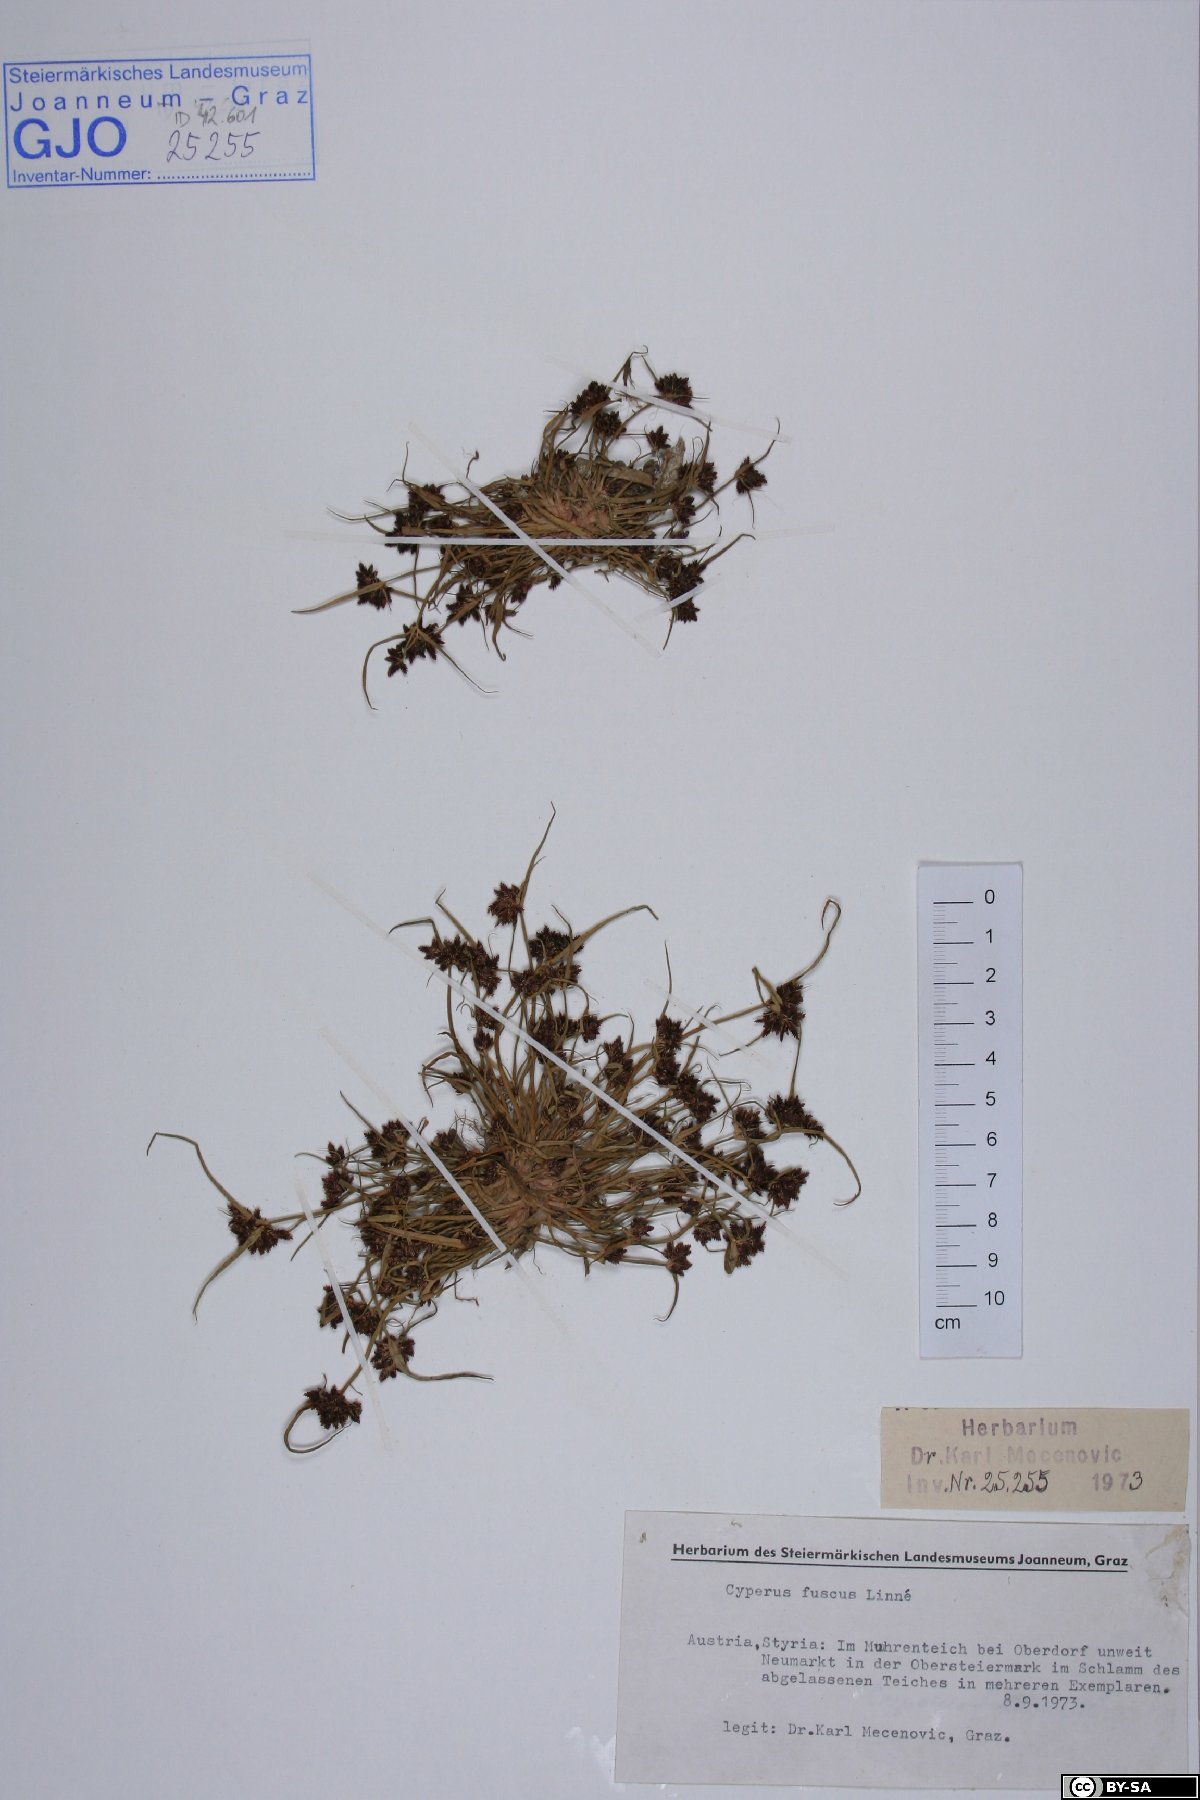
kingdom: Plantae
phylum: Tracheophyta
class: Liliopsida
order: Poales
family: Cyperaceae
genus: Cyperus
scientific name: Cyperus fuscus
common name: Brown galingale
